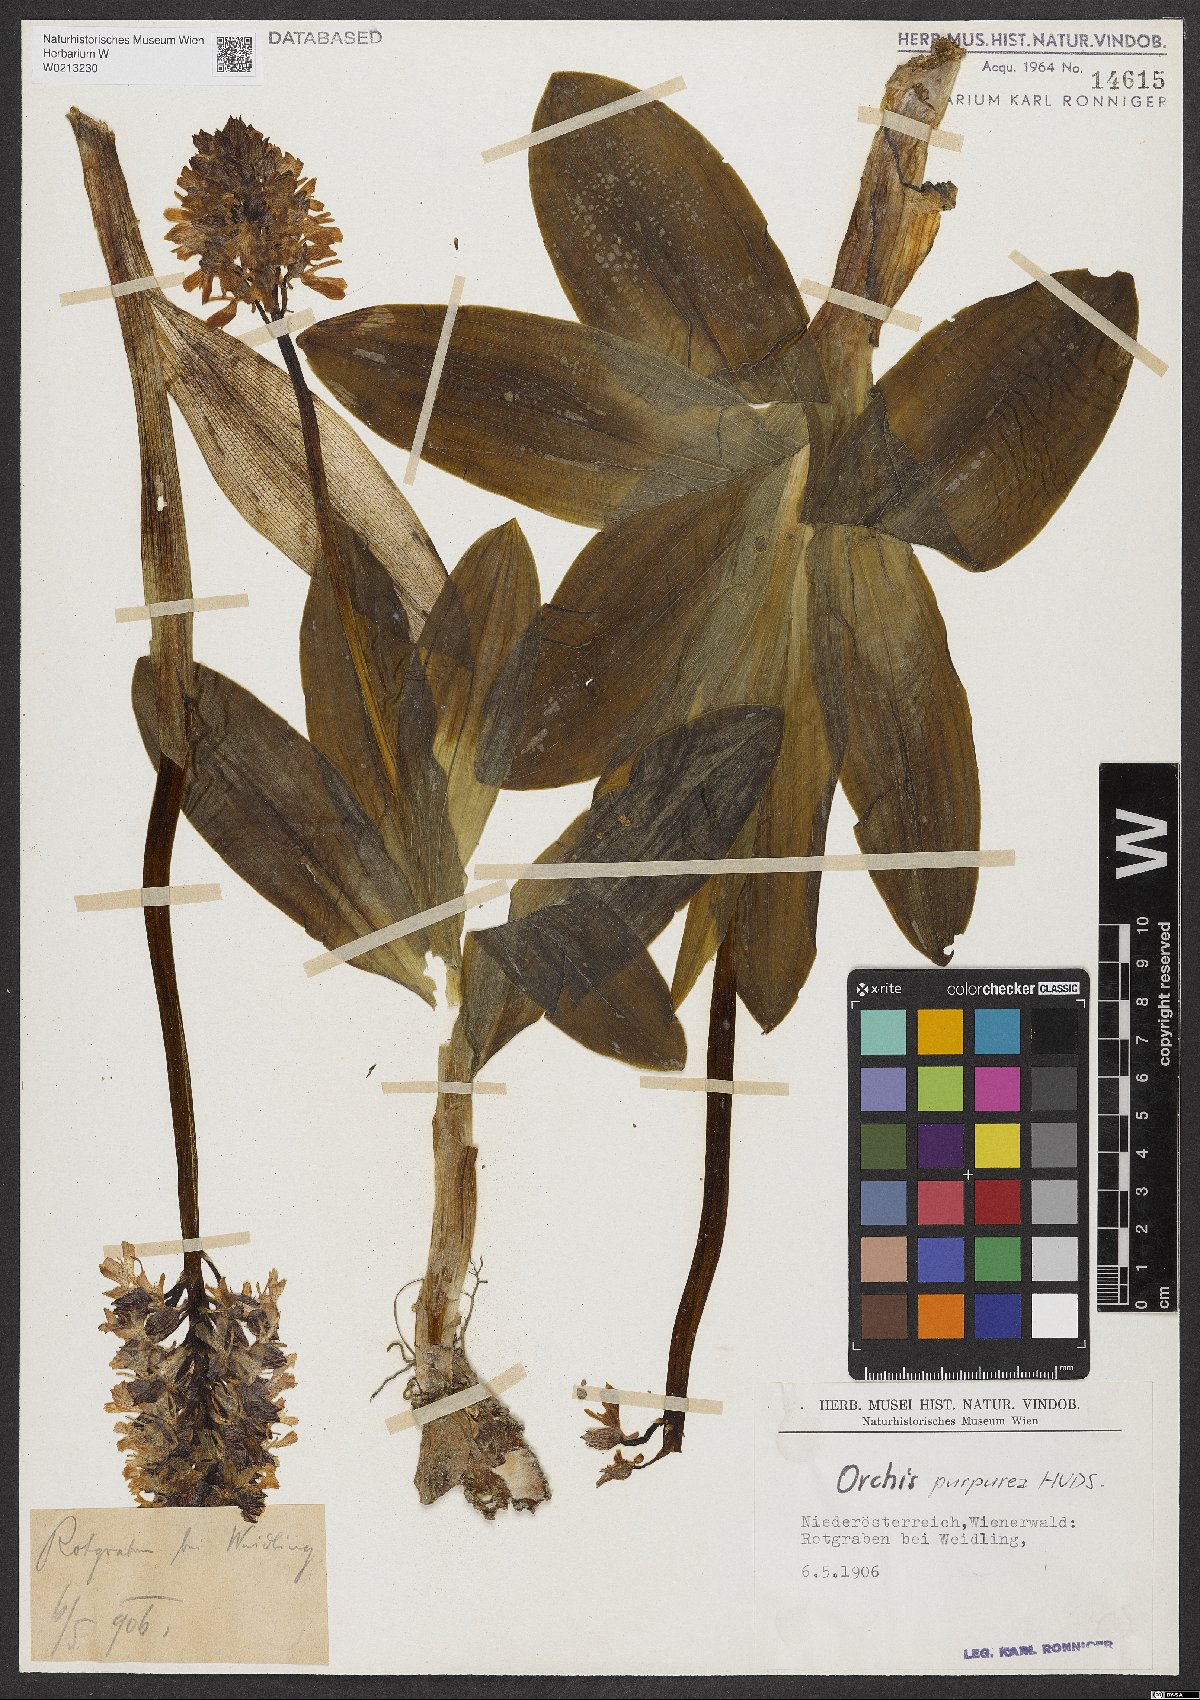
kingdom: Plantae
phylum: Tracheophyta
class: Liliopsida
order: Asparagales
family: Orchidaceae
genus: Orchis
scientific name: Orchis purpurea
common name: Lady orchid
